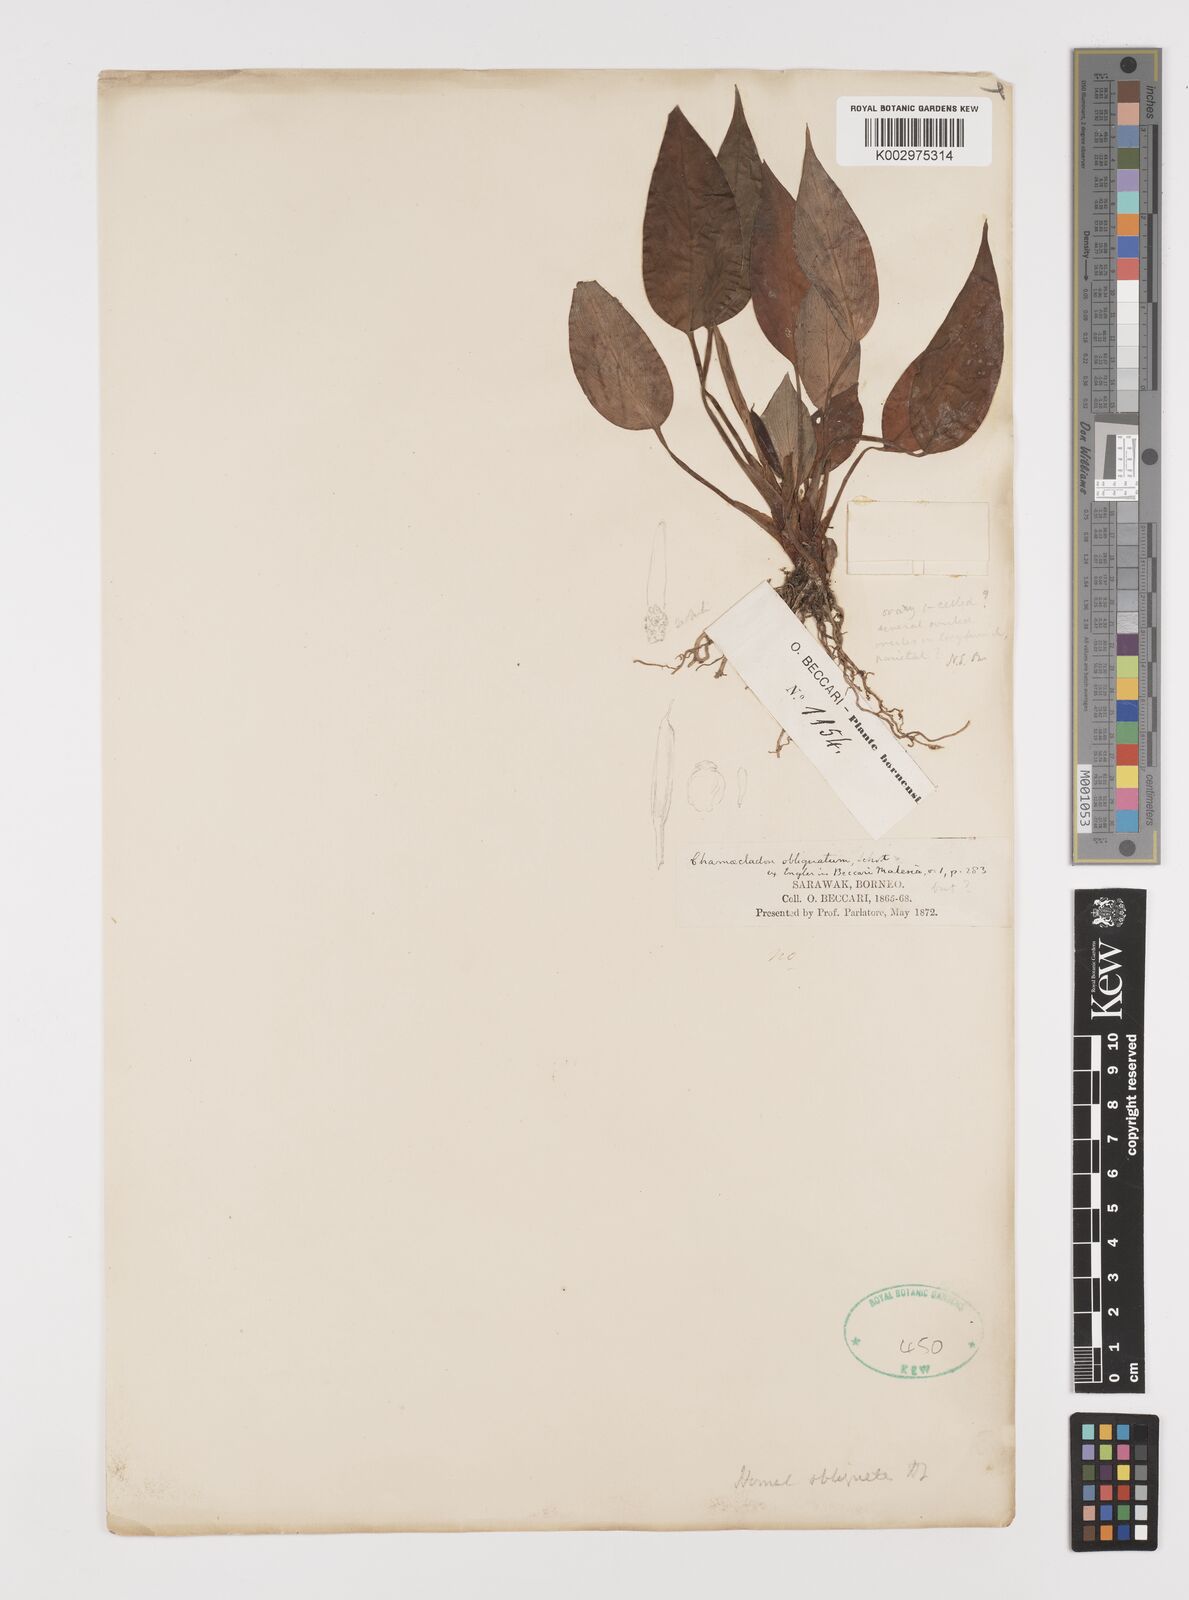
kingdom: Plantae
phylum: Tracheophyta
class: Liliopsida
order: Alismatales
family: Araceae
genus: Homalomena
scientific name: Homalomena griffithii
